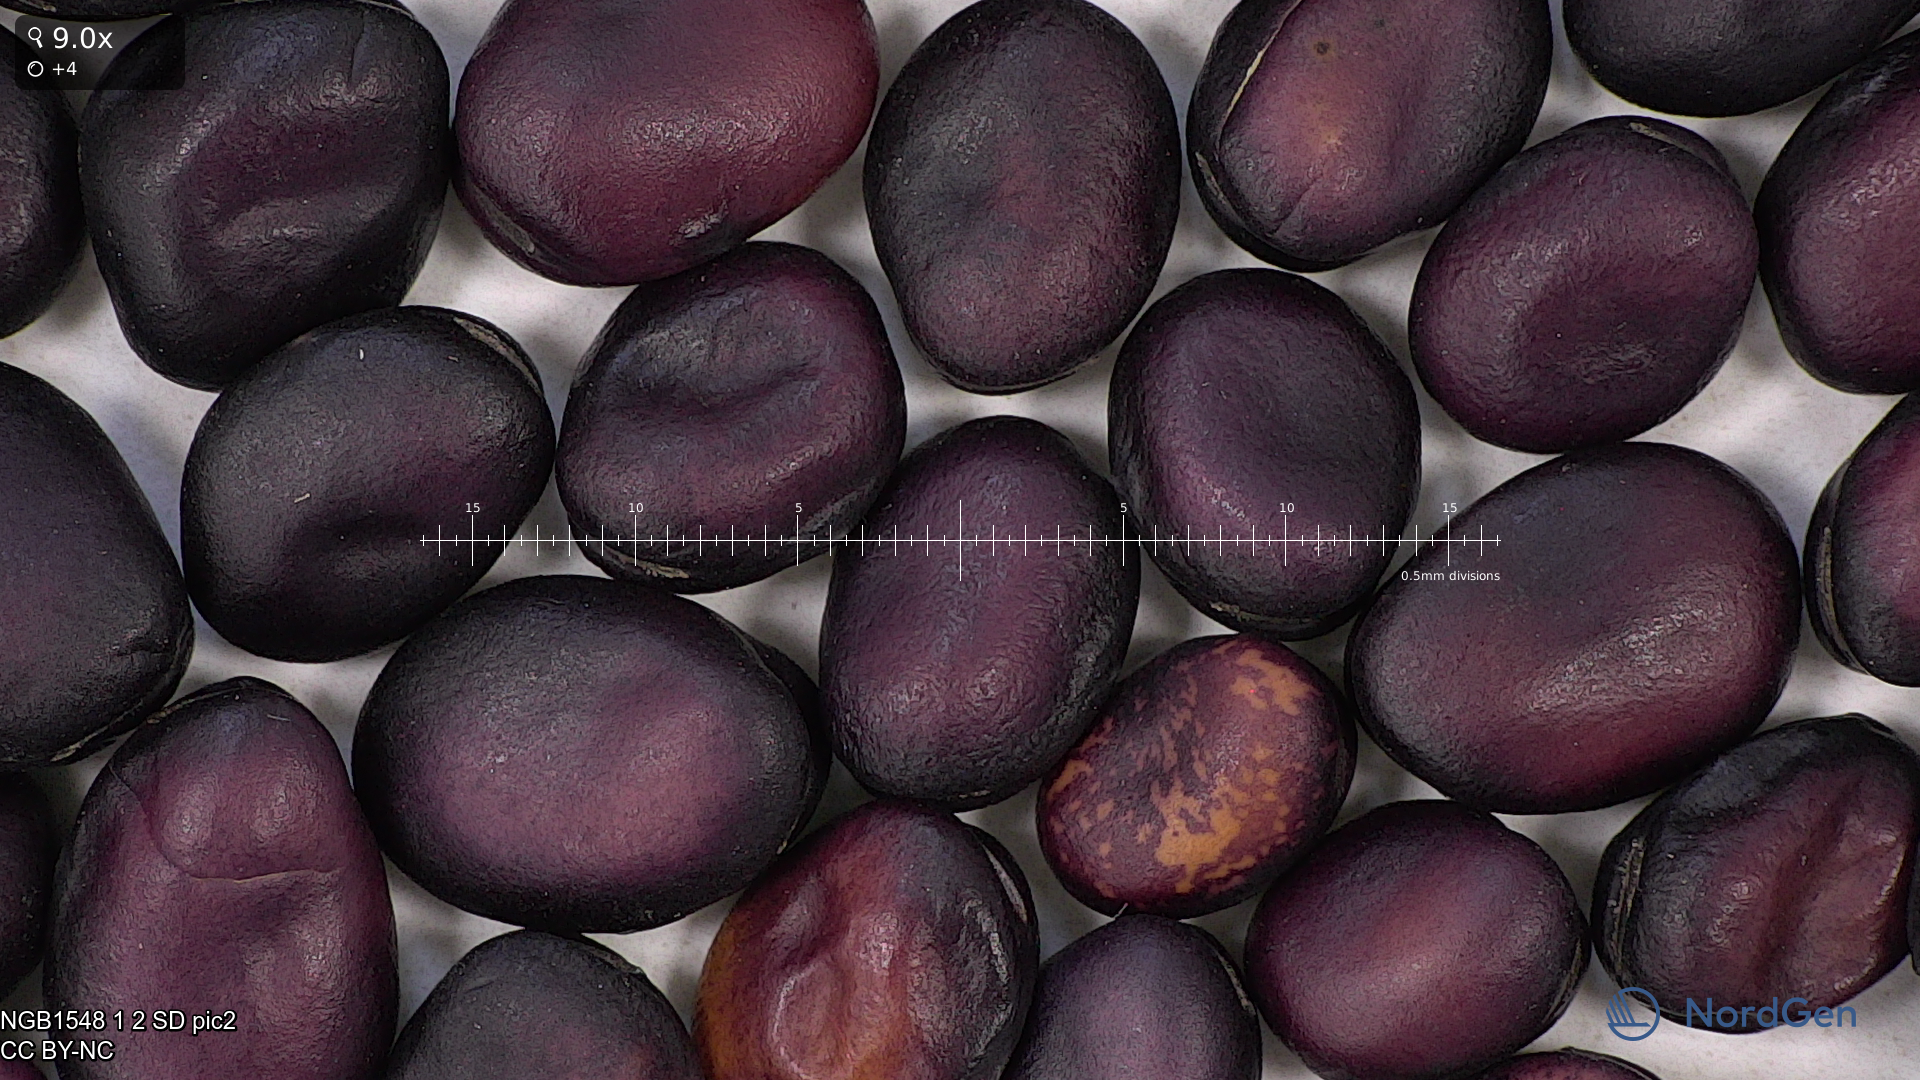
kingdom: Plantae
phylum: Tracheophyta
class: Magnoliopsida
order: Fabales
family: Fabaceae
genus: Vicia
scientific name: Vicia faba
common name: Broad bean
